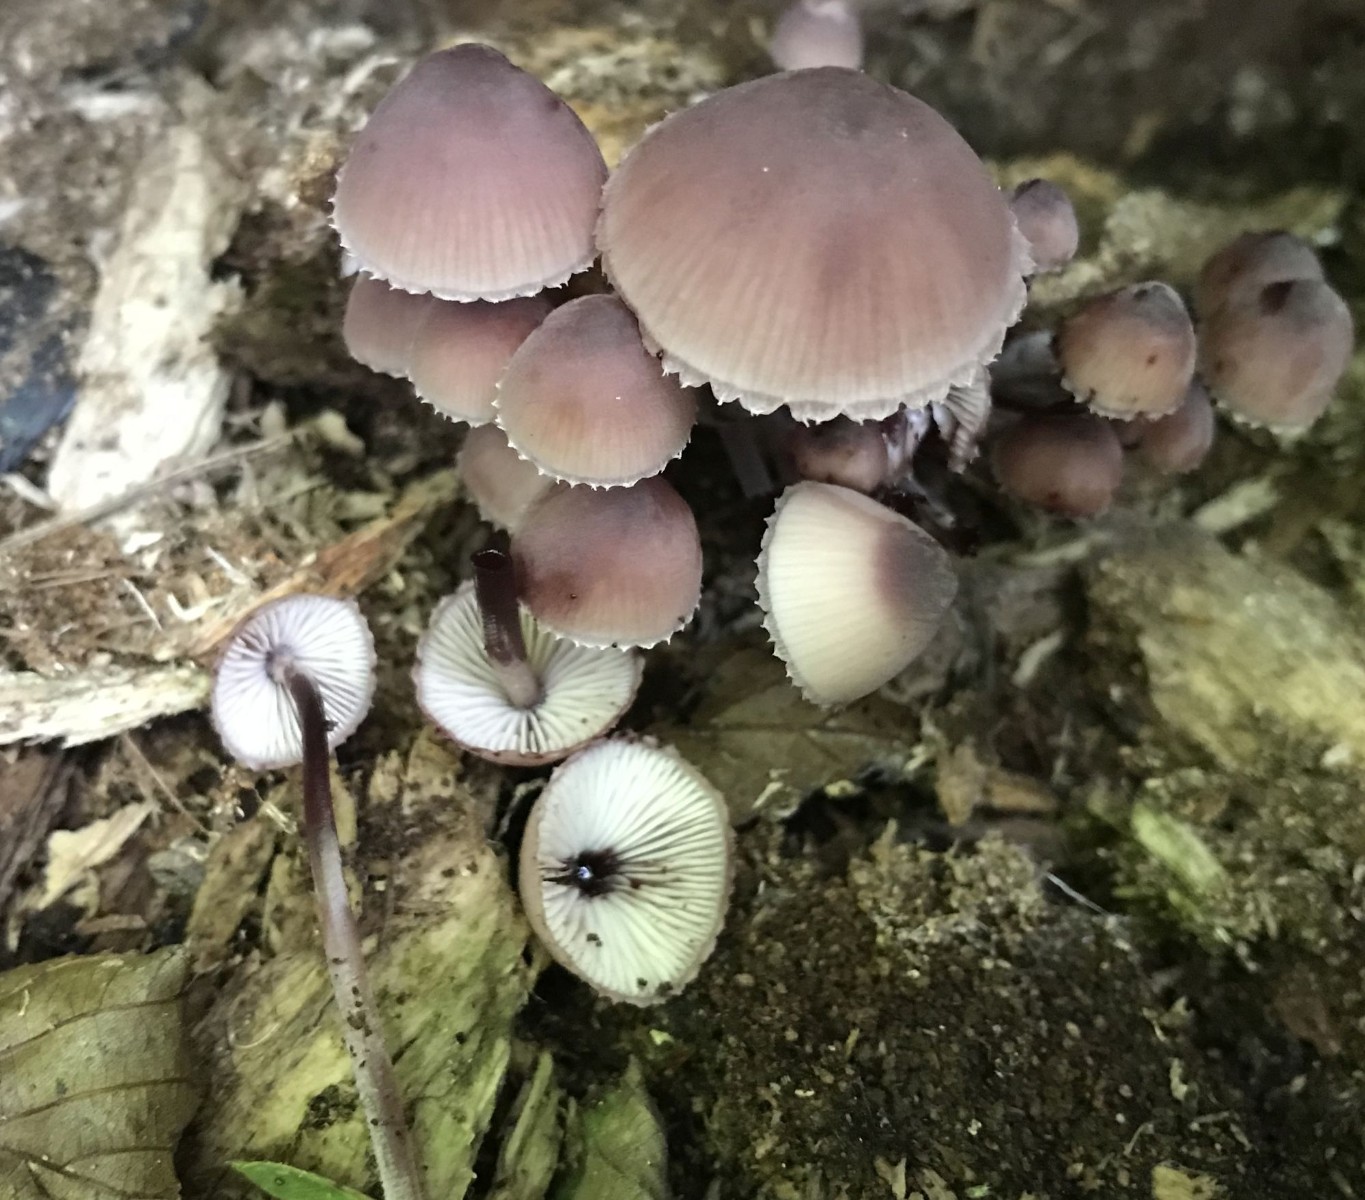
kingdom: Fungi
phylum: Basidiomycota
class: Agaricomycetes
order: Agaricales
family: Mycenaceae
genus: Mycena
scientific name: Mycena haematopus
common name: blødende huesvamp
